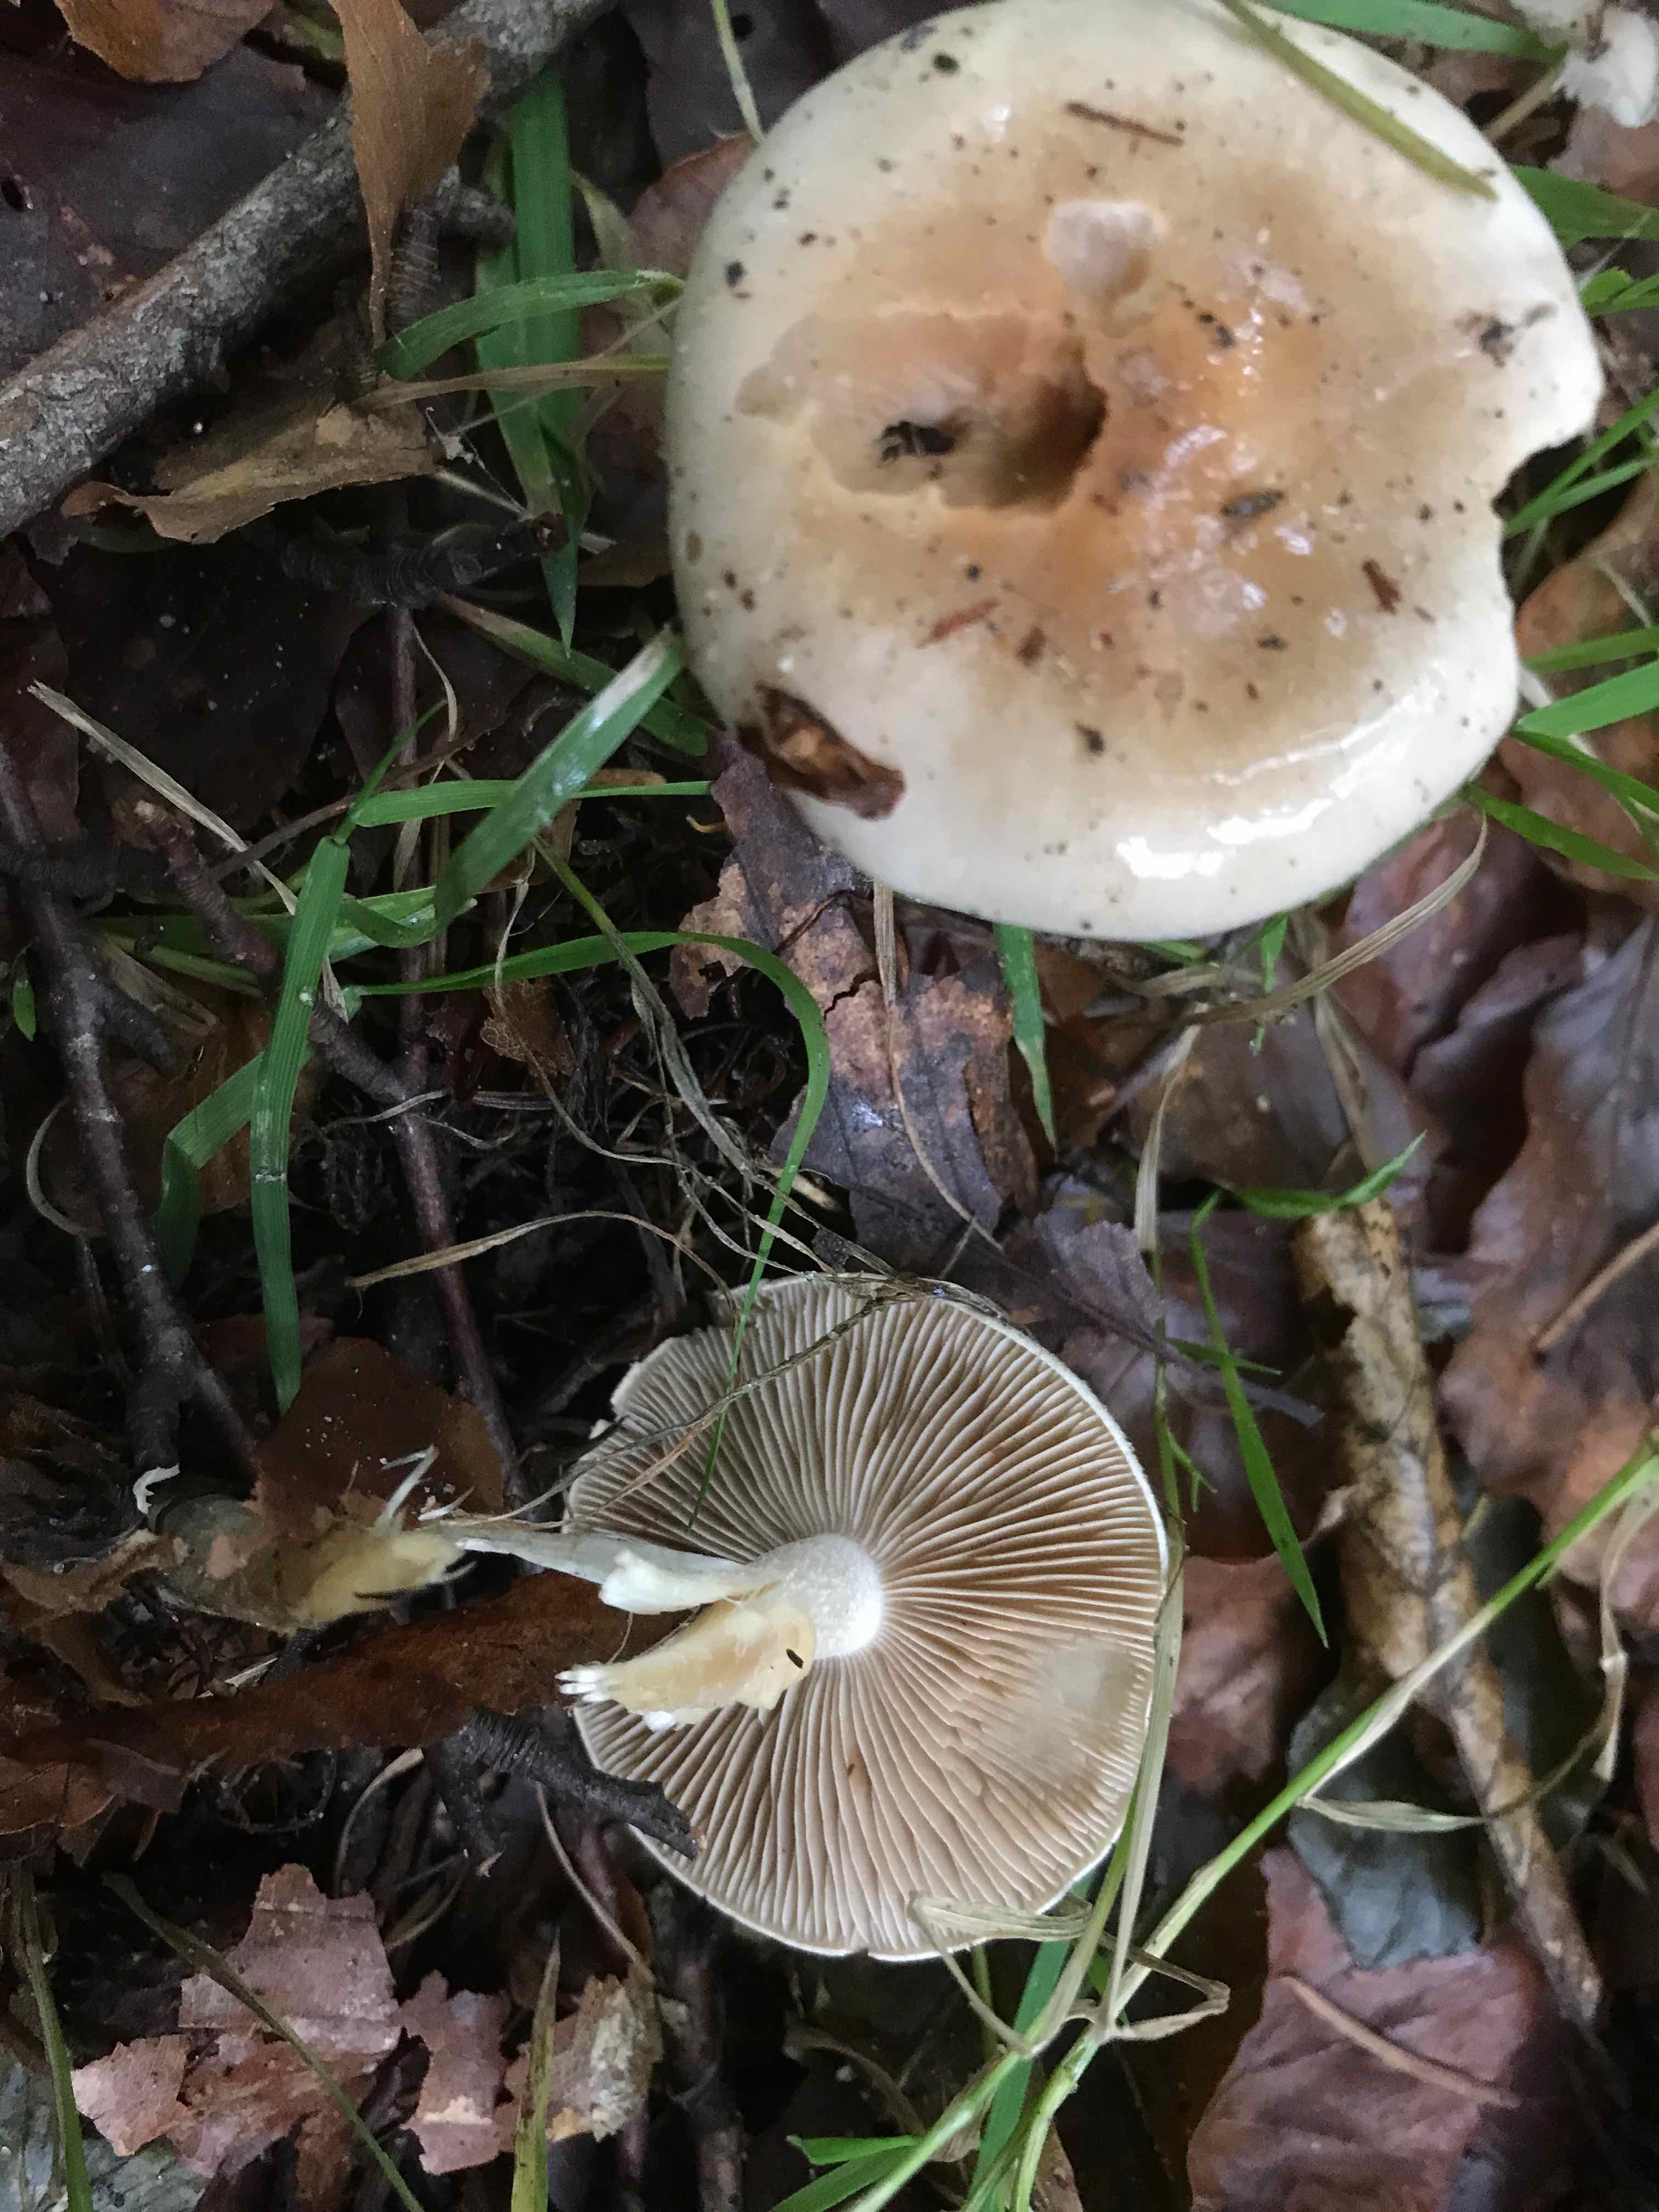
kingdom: Fungi
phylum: Basidiomycota
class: Agaricomycetes
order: Agaricales
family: Hymenogastraceae
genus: Hebeloma
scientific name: Hebeloma
